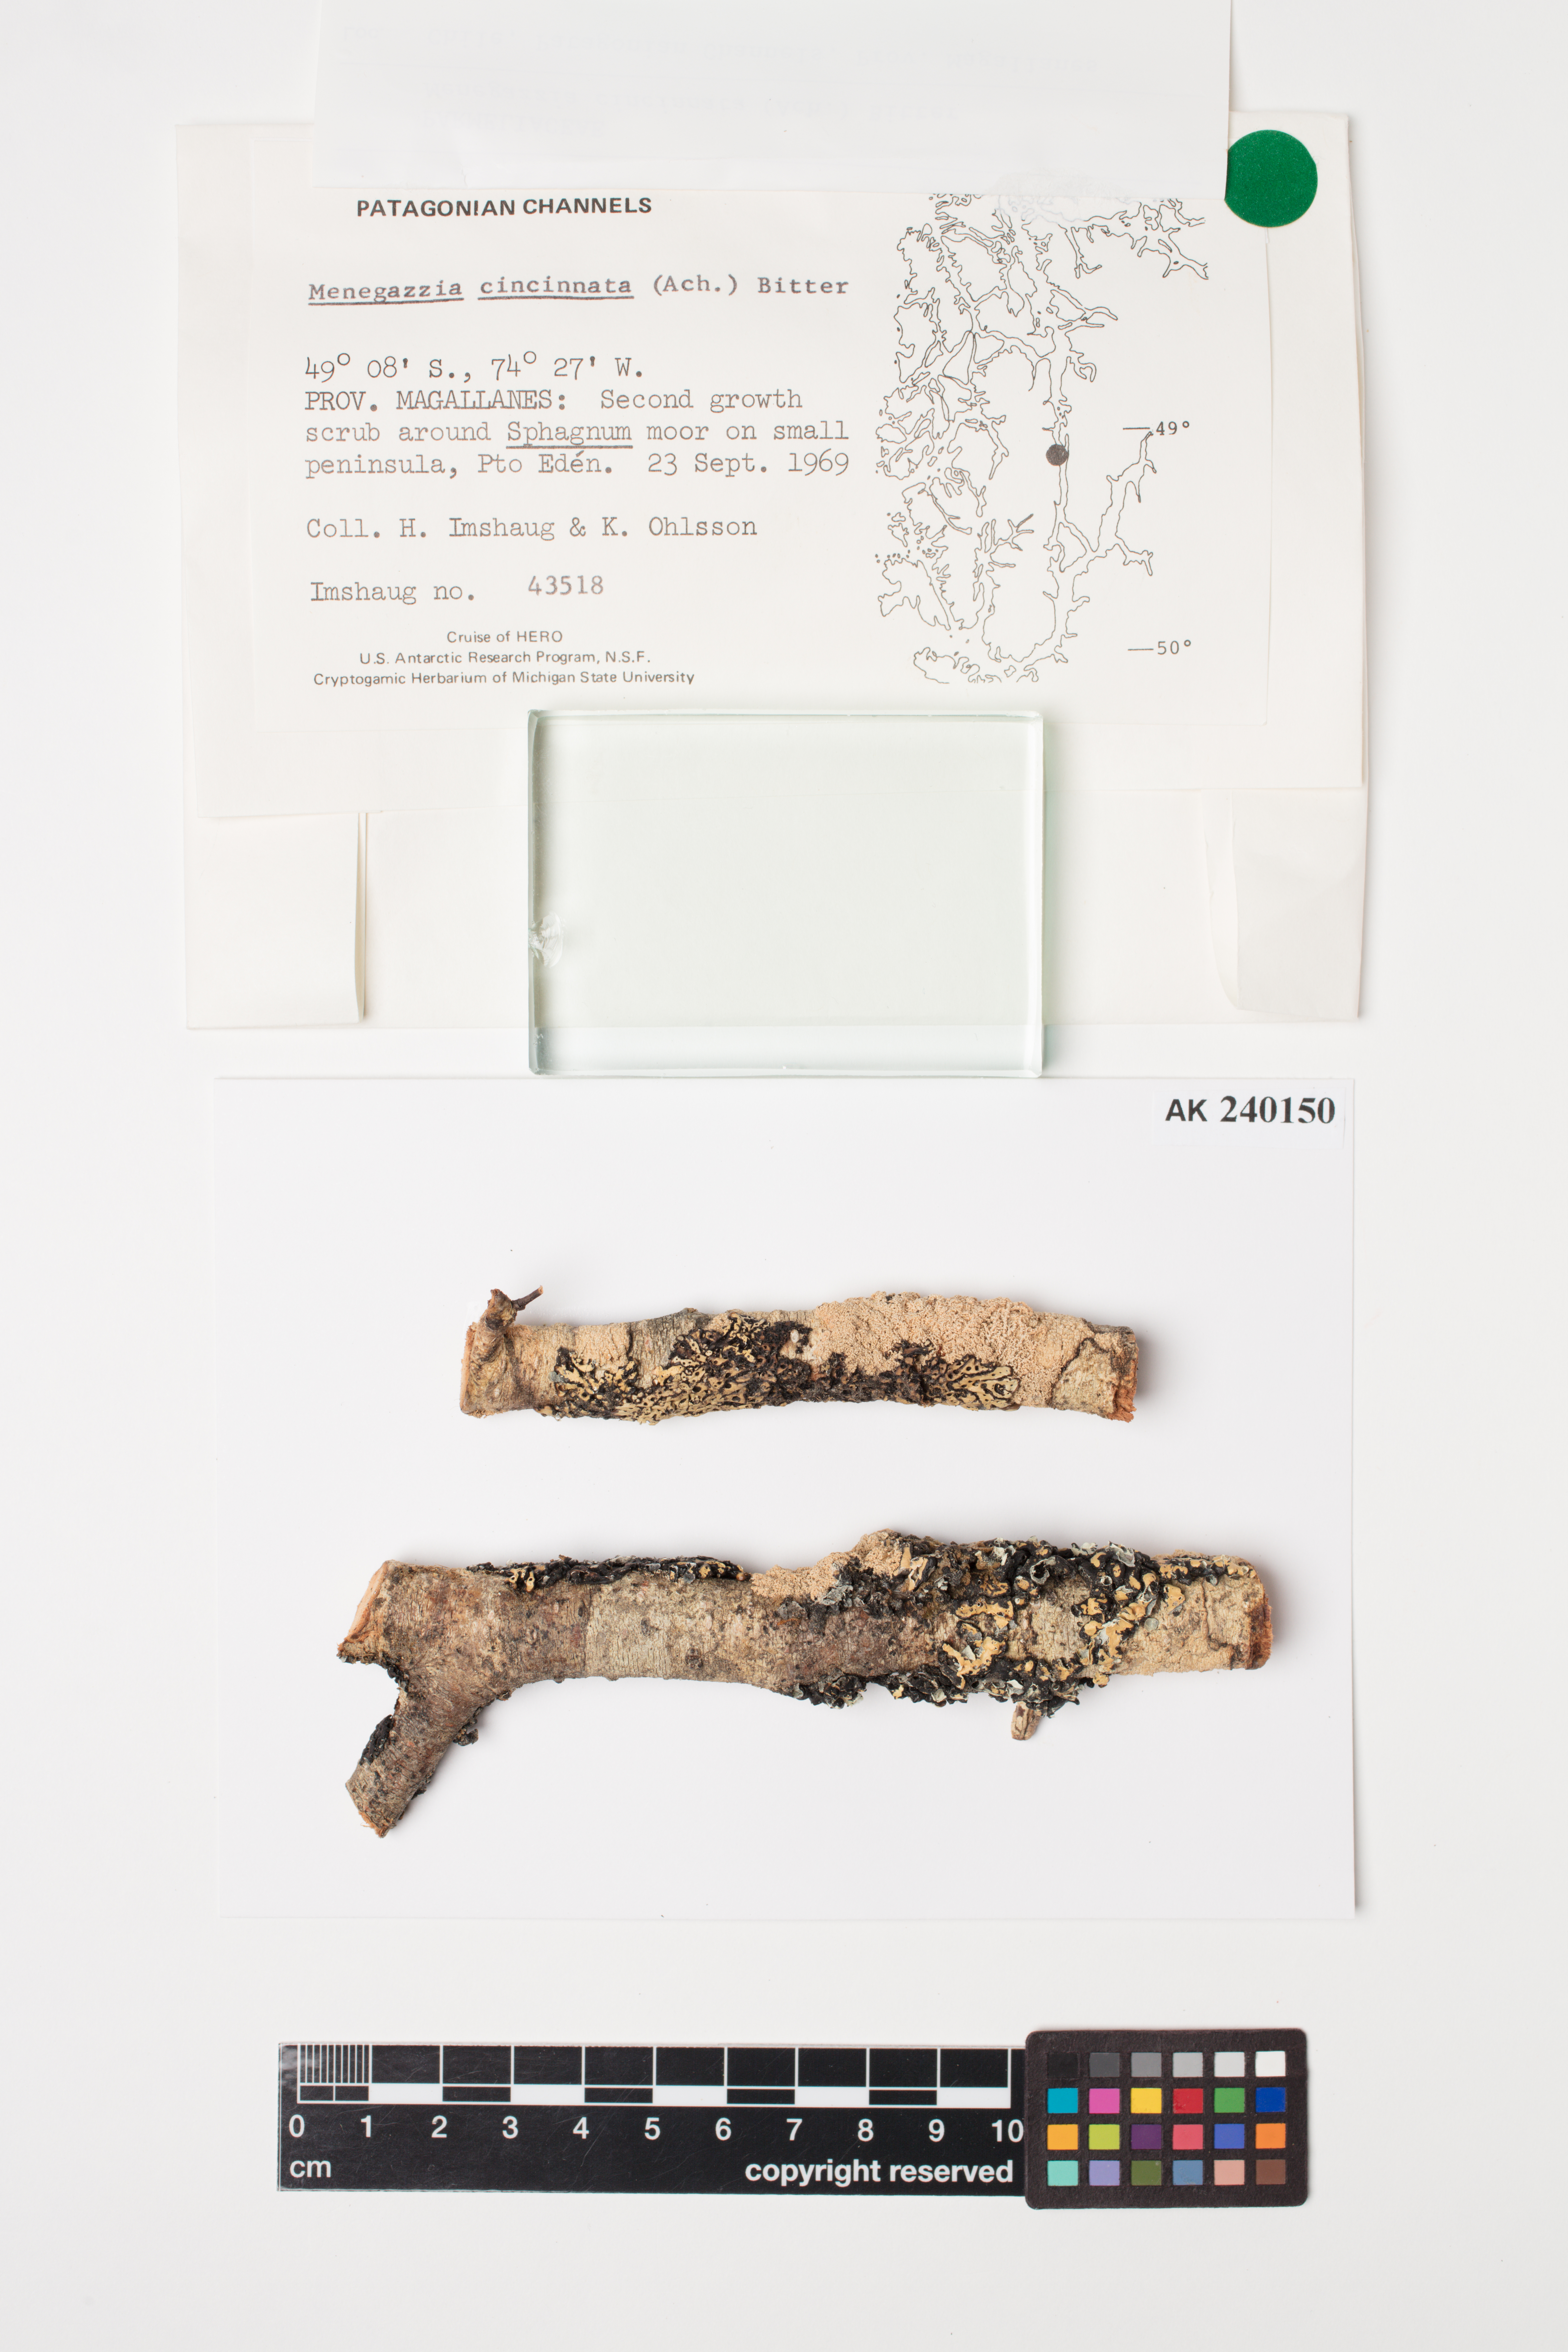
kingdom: Fungi
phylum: Ascomycota
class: Lecanoromycetes
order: Lecanorales
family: Parmeliaceae
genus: Menegazzia
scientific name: Menegazzia cincinnata
